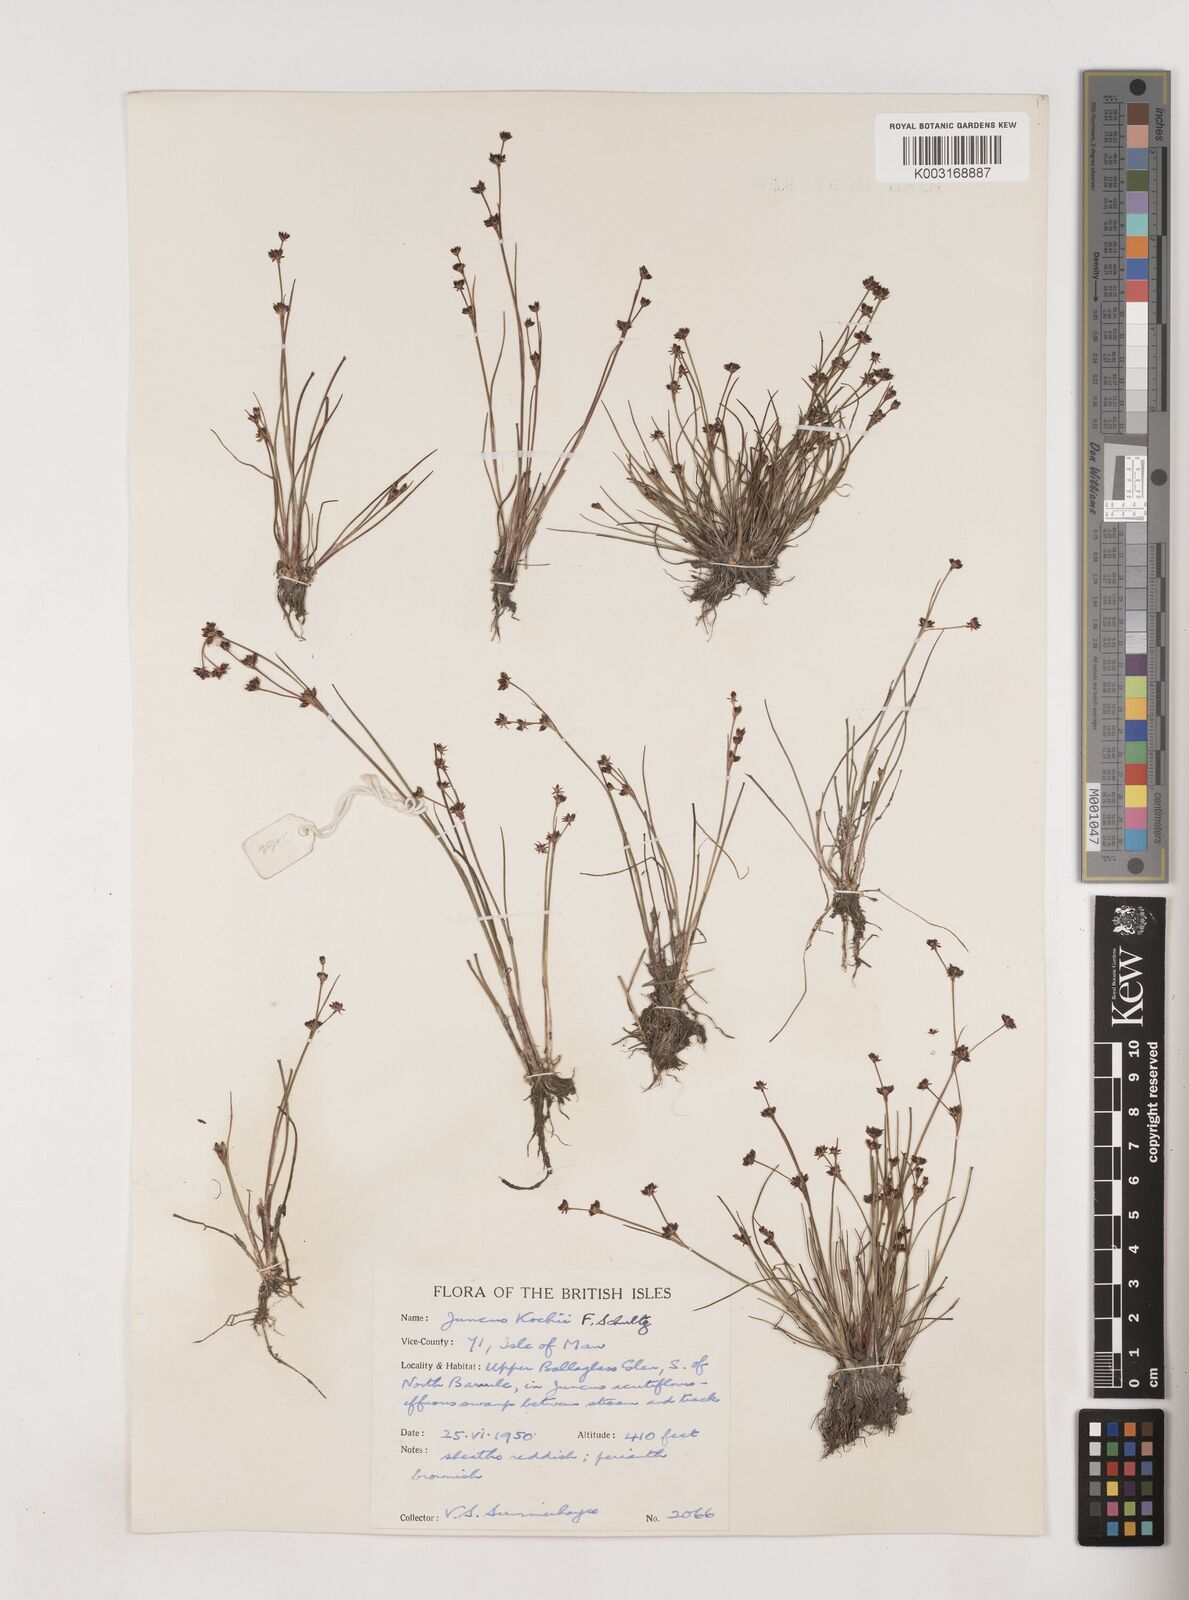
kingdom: Plantae
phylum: Tracheophyta
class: Liliopsida
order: Poales
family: Juncaceae
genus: Juncus
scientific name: Juncus bulbosus
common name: Bulbous rush
